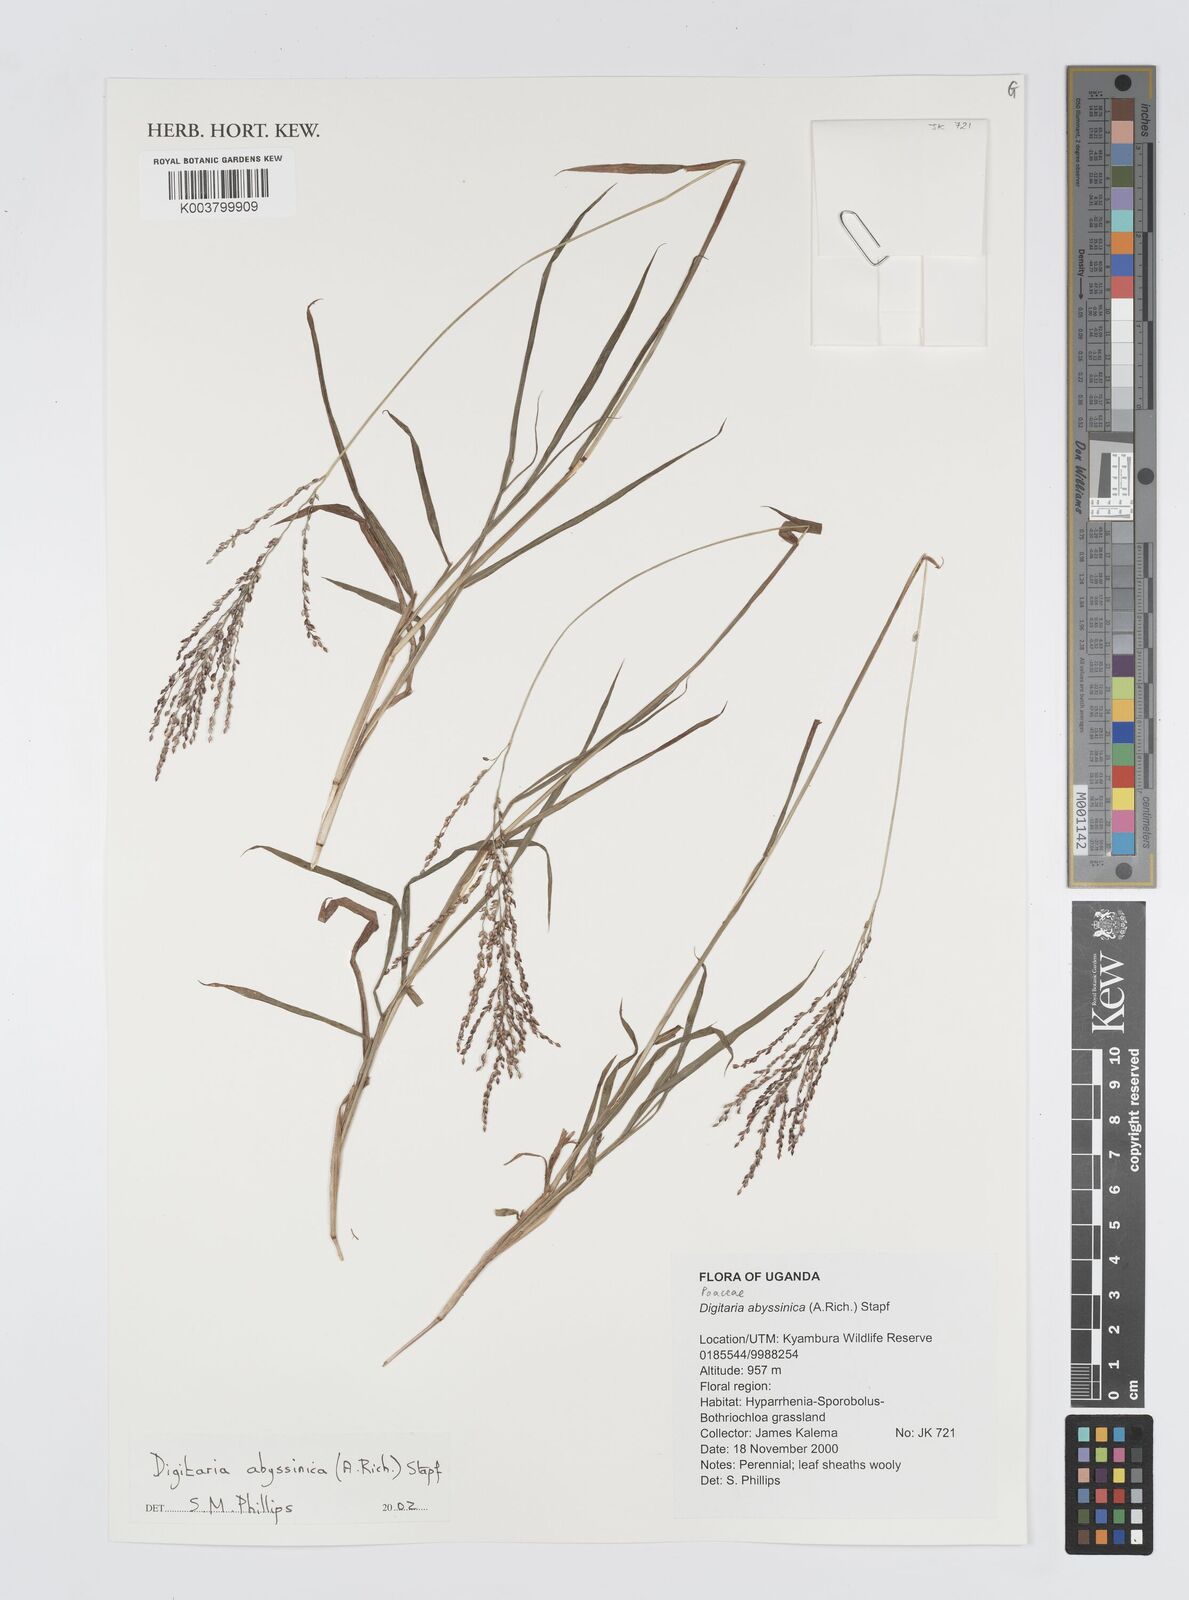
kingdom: Plantae
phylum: Tracheophyta
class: Liliopsida
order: Poales
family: Poaceae
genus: Digitaria
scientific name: Digitaria abyssinica
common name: African couchgrass
